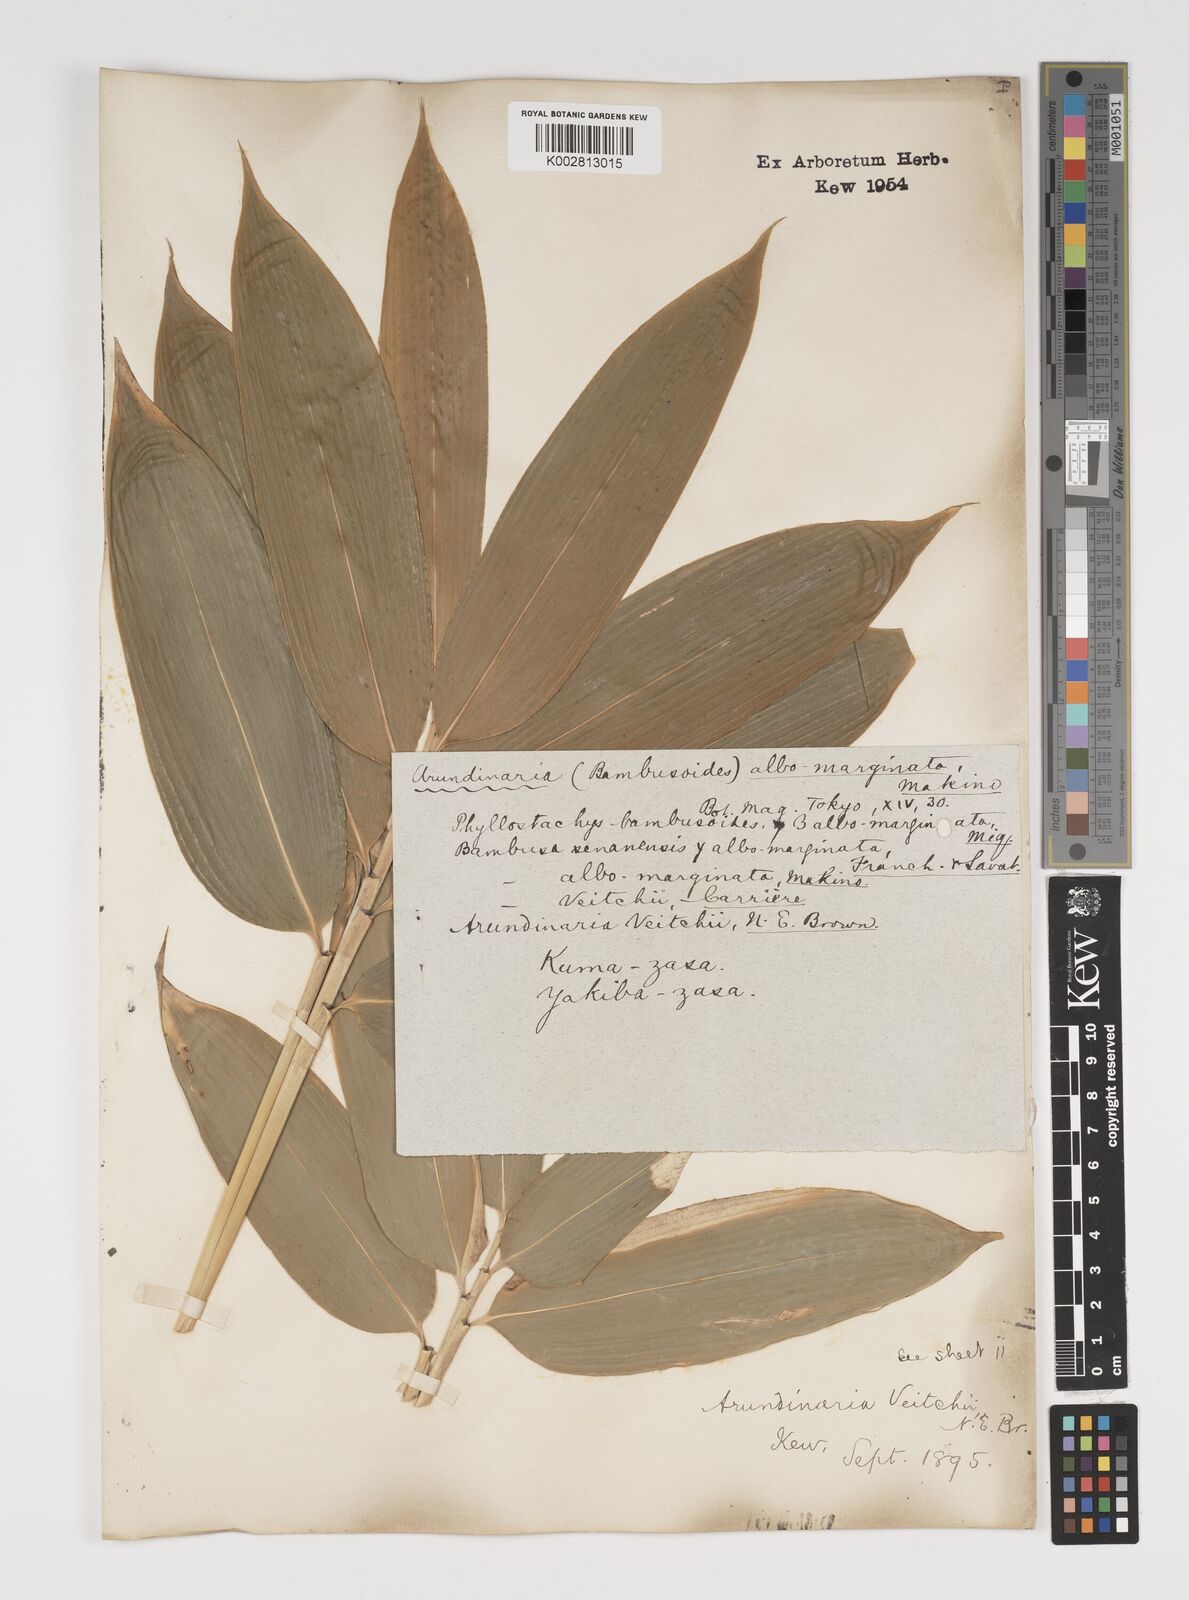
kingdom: Plantae
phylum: Tracheophyta
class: Liliopsida
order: Poales
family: Poaceae
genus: Sasa
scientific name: Sasa veitchii
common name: Veitch's bamboo
